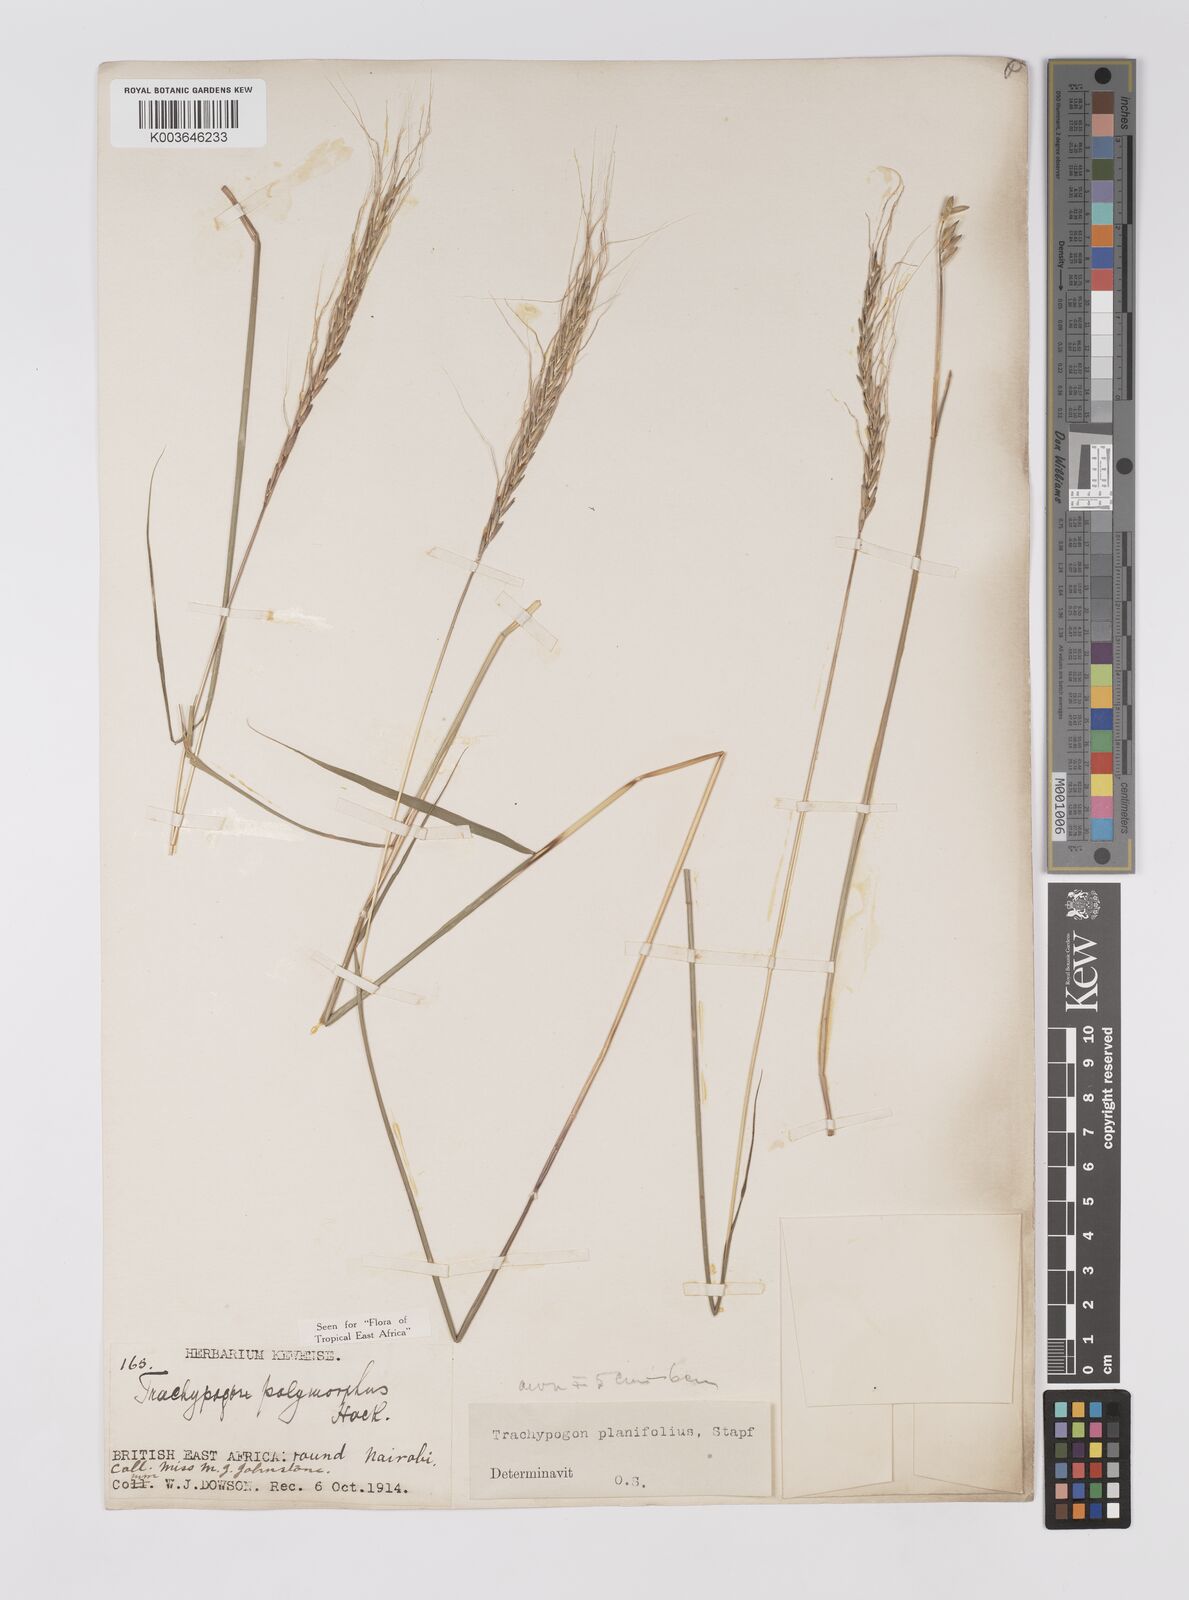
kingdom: Plantae
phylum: Tracheophyta
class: Liliopsida
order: Poales
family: Poaceae
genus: Trachypogon
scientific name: Trachypogon spicatus
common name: Crinkle-awn
